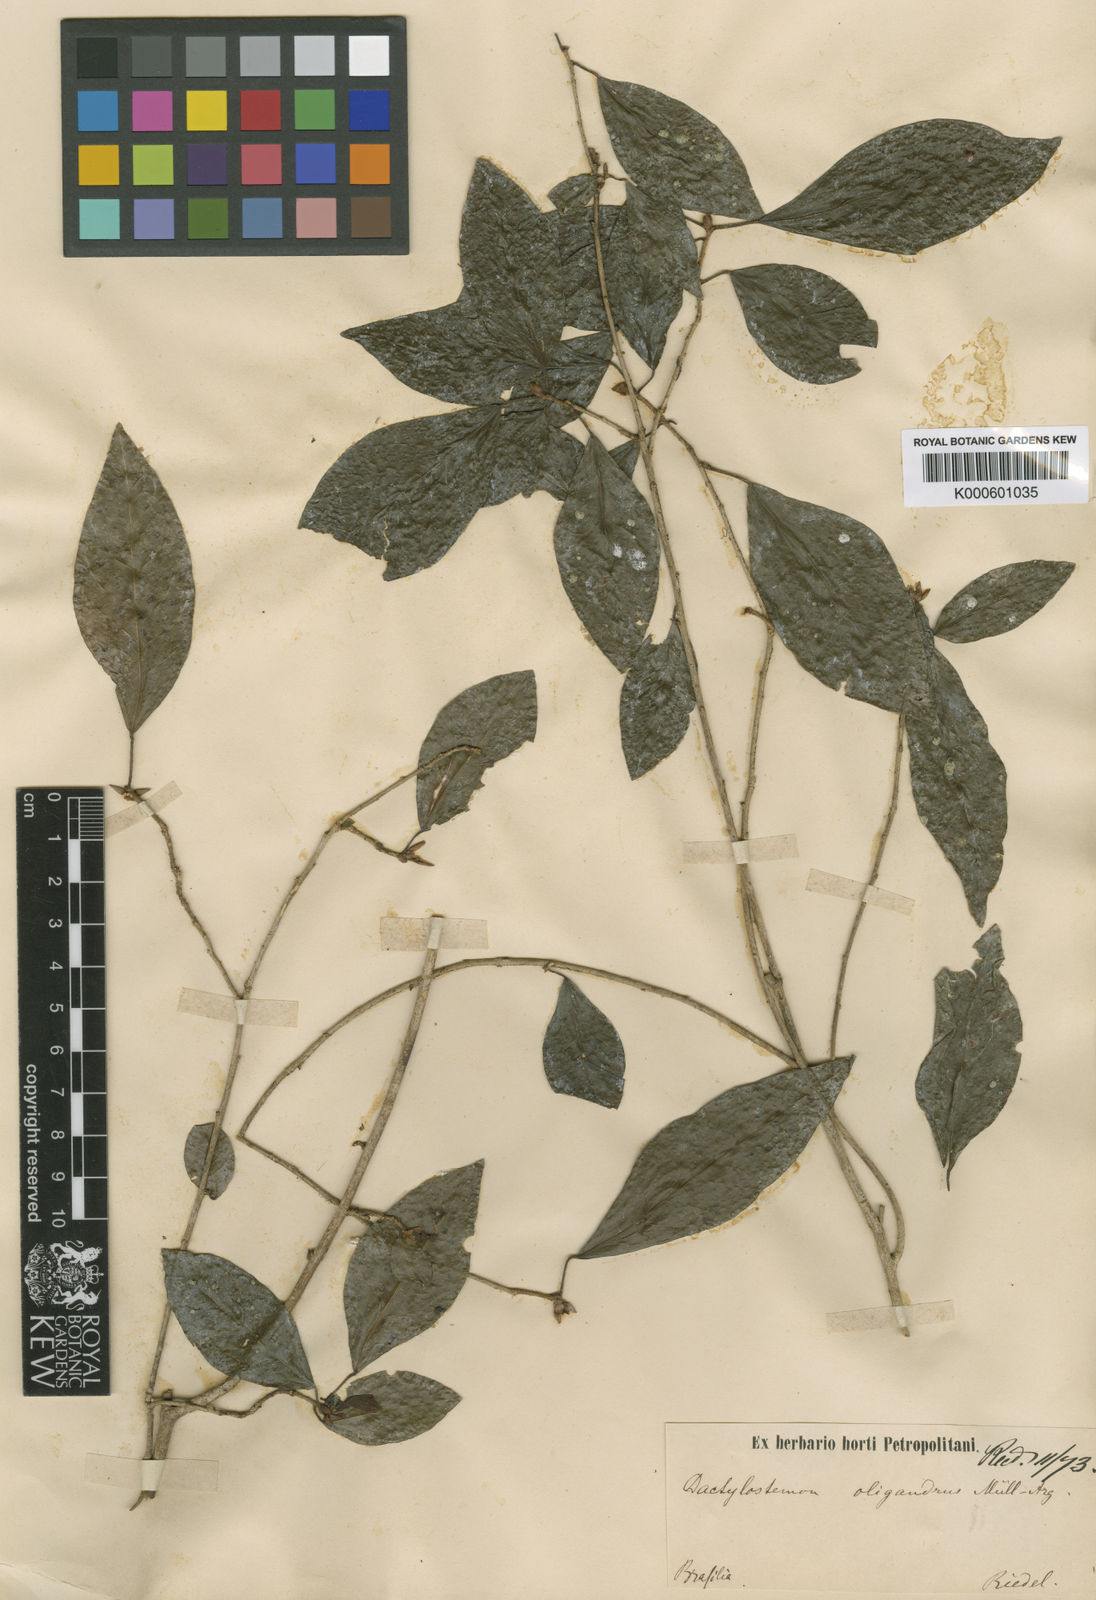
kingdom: Plantae
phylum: Tracheophyta
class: Magnoliopsida
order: Malpighiales
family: Euphorbiaceae
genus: Actinostemon
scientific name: Actinostemon
